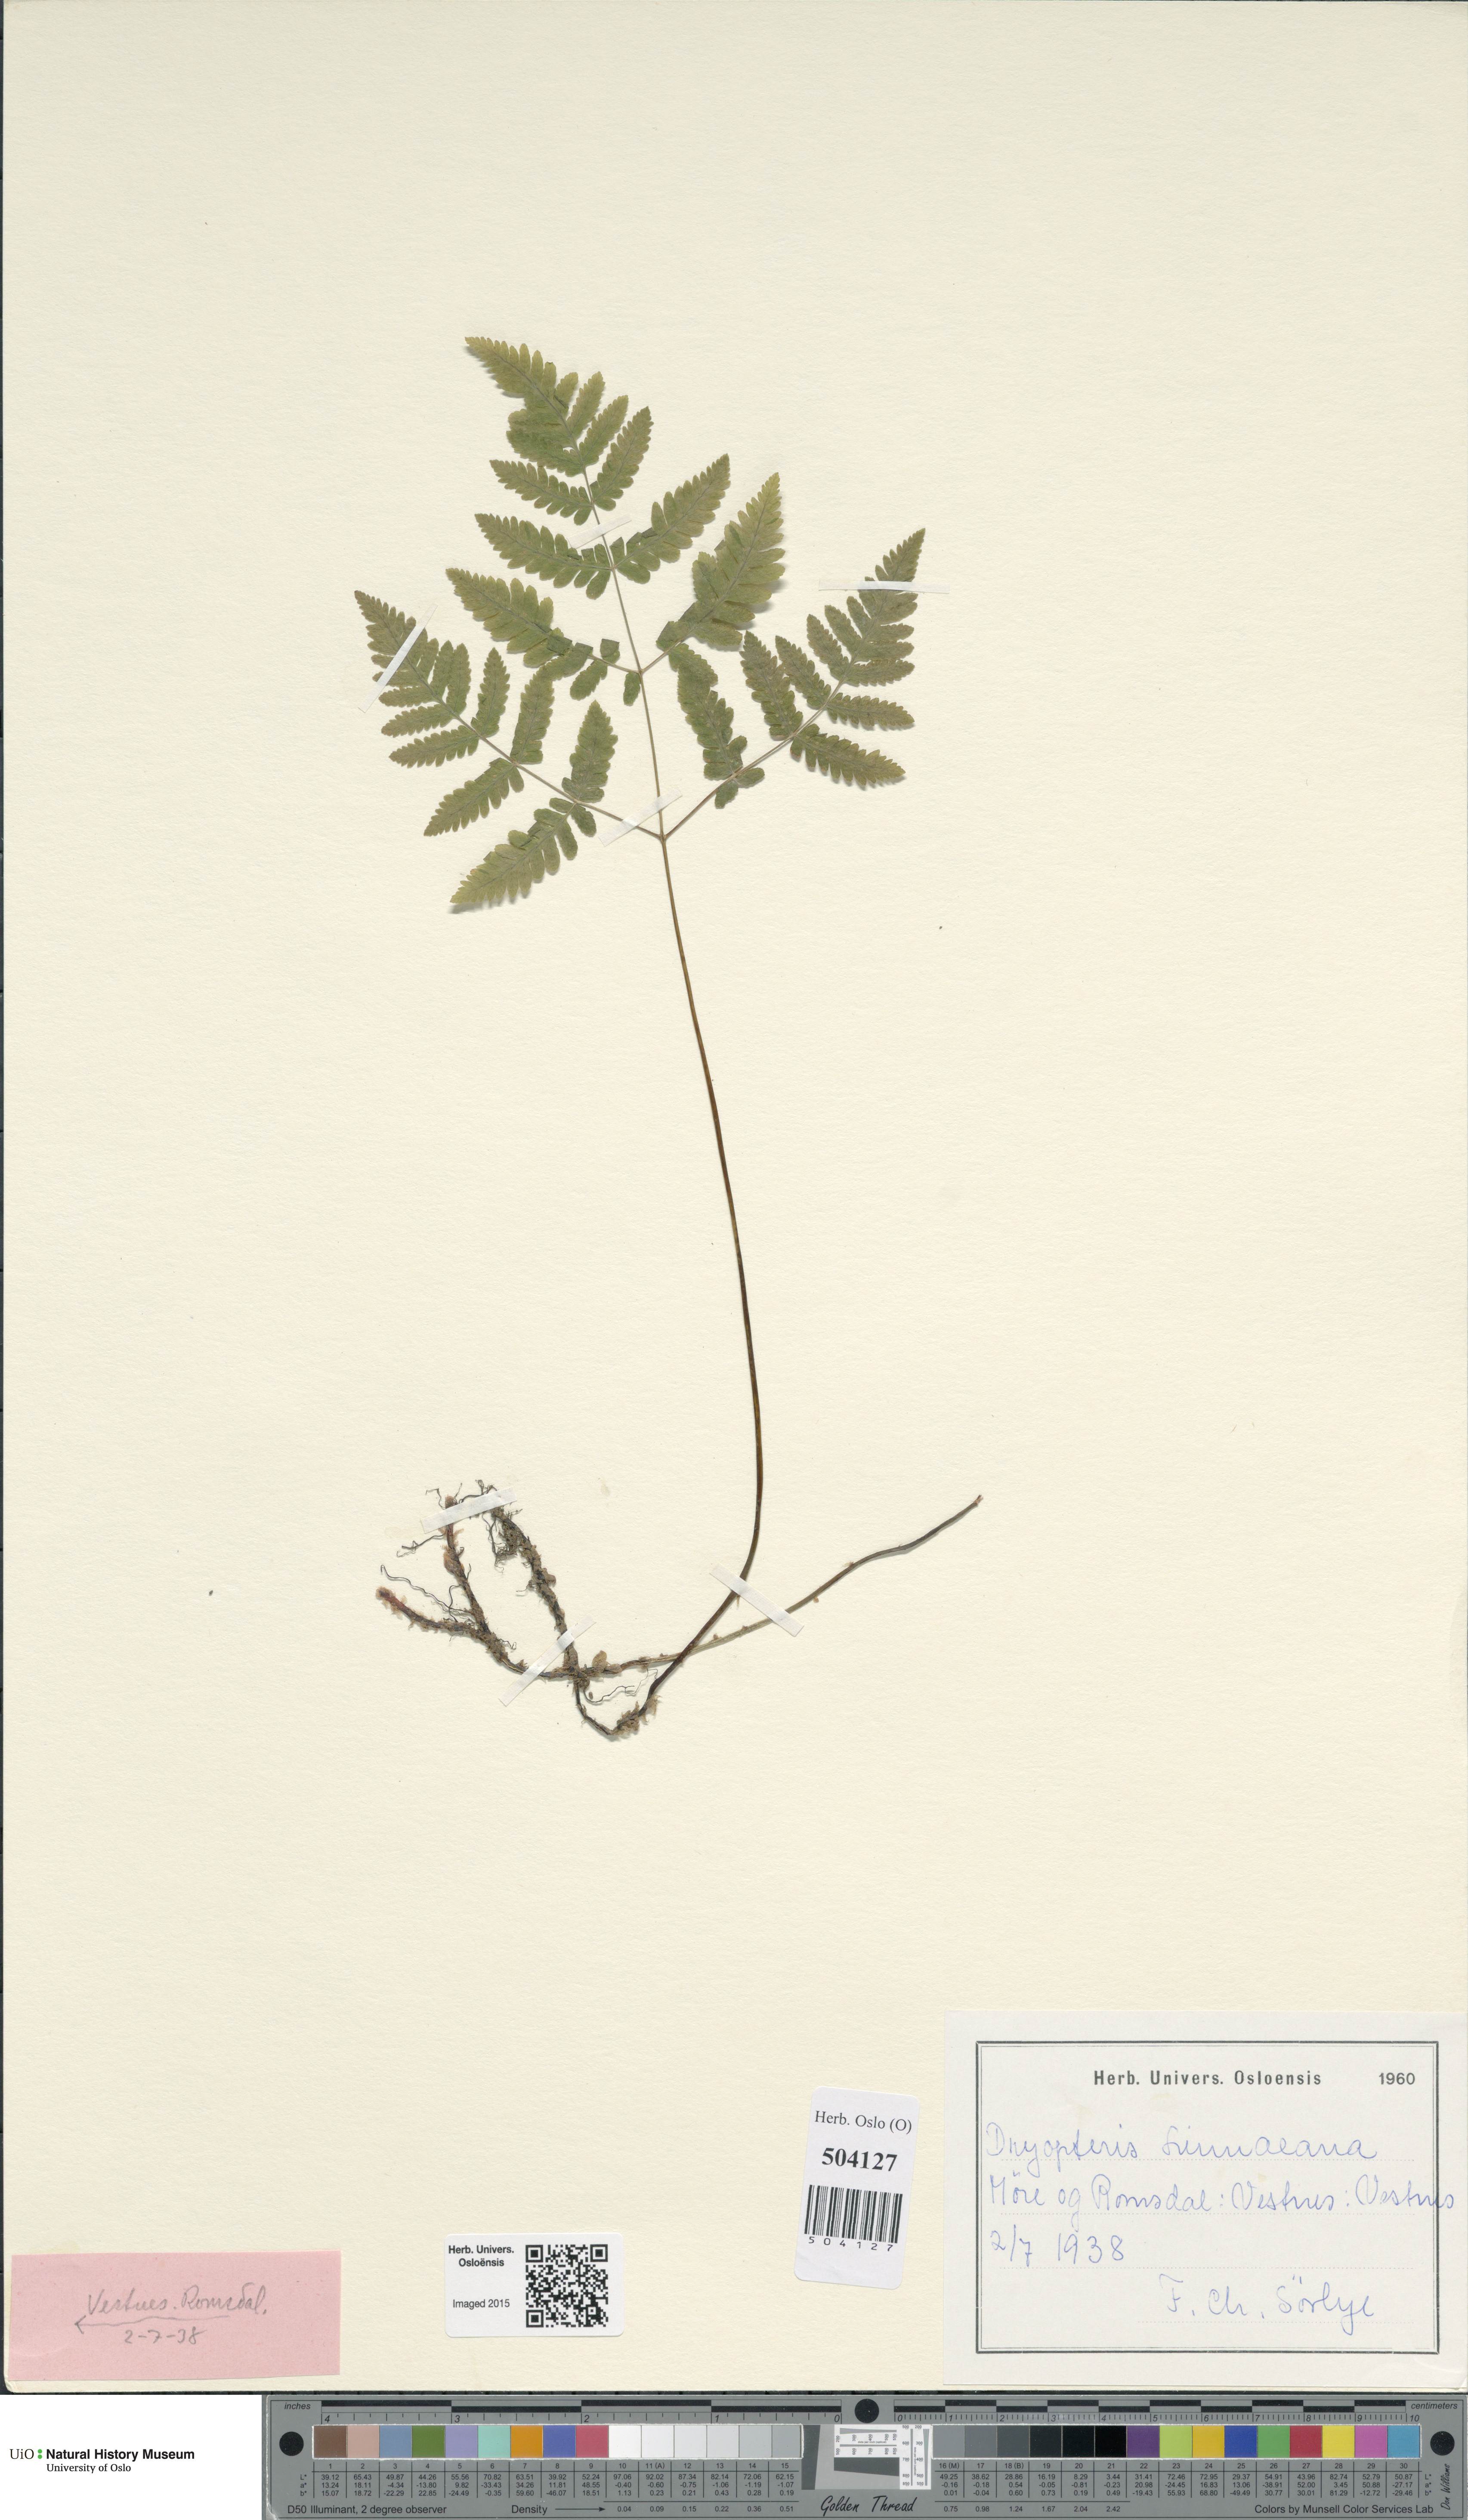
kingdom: Plantae
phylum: Tracheophyta
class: Polypodiopsida
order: Polypodiales
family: Cystopteridaceae
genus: Gymnocarpium
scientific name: Gymnocarpium dryopteris
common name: Oak fern
